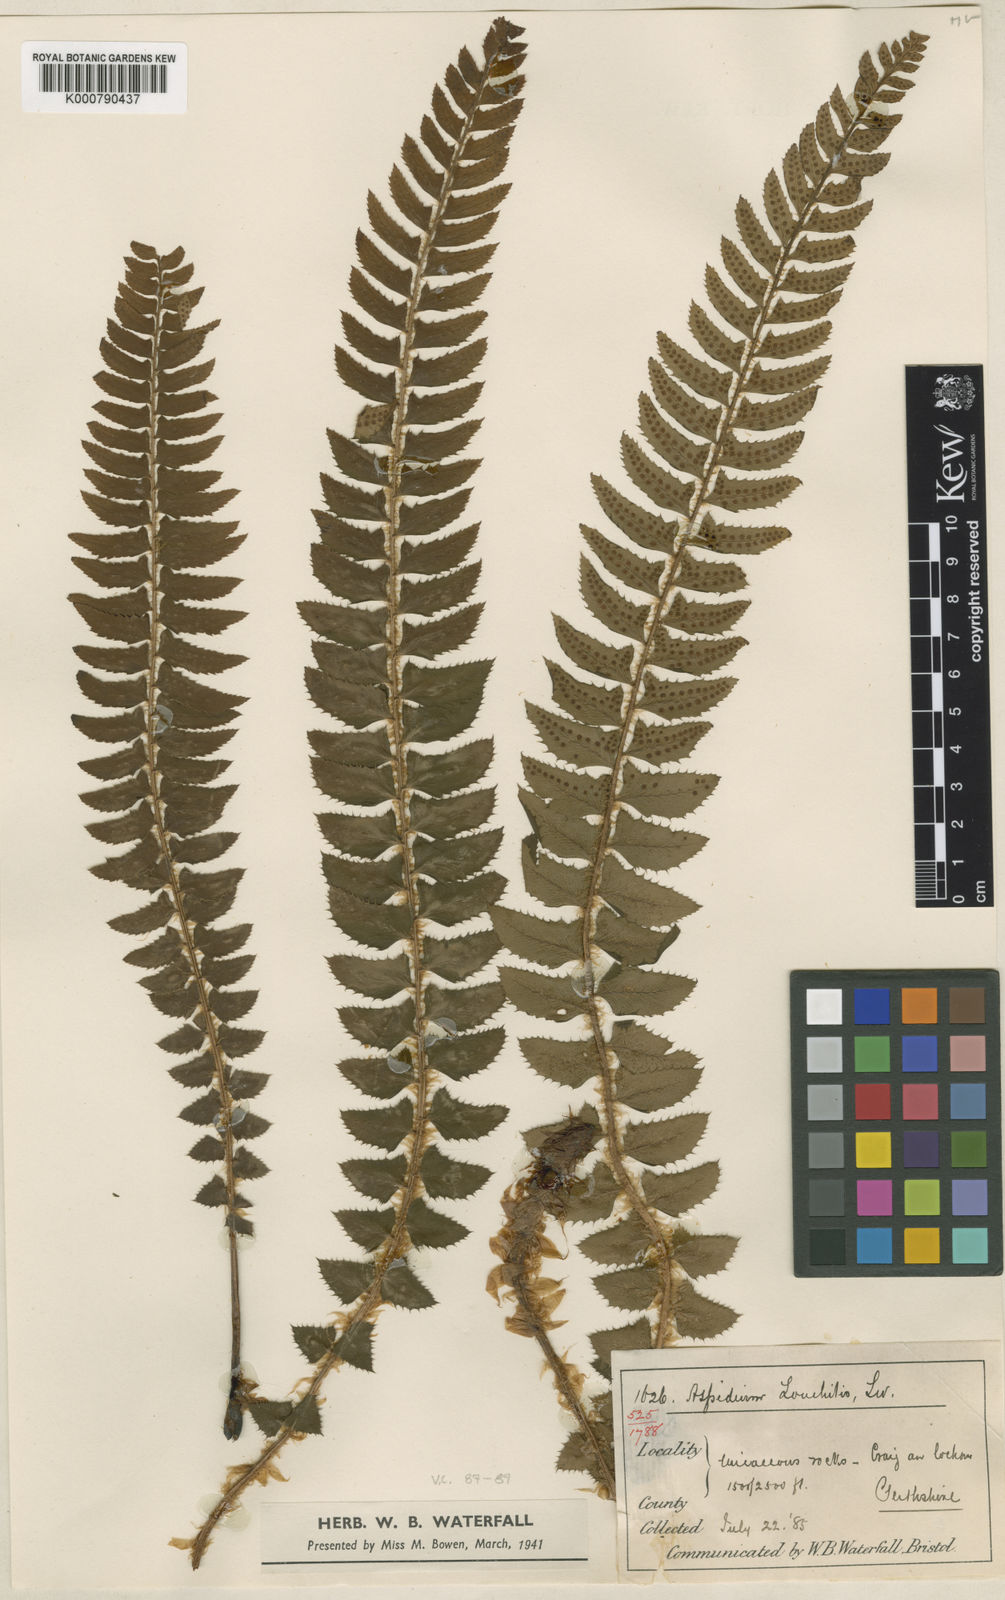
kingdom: Plantae
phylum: Tracheophyta
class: Polypodiopsida
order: Polypodiales
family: Dryopteridaceae
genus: Polystichum
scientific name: Polystichum
